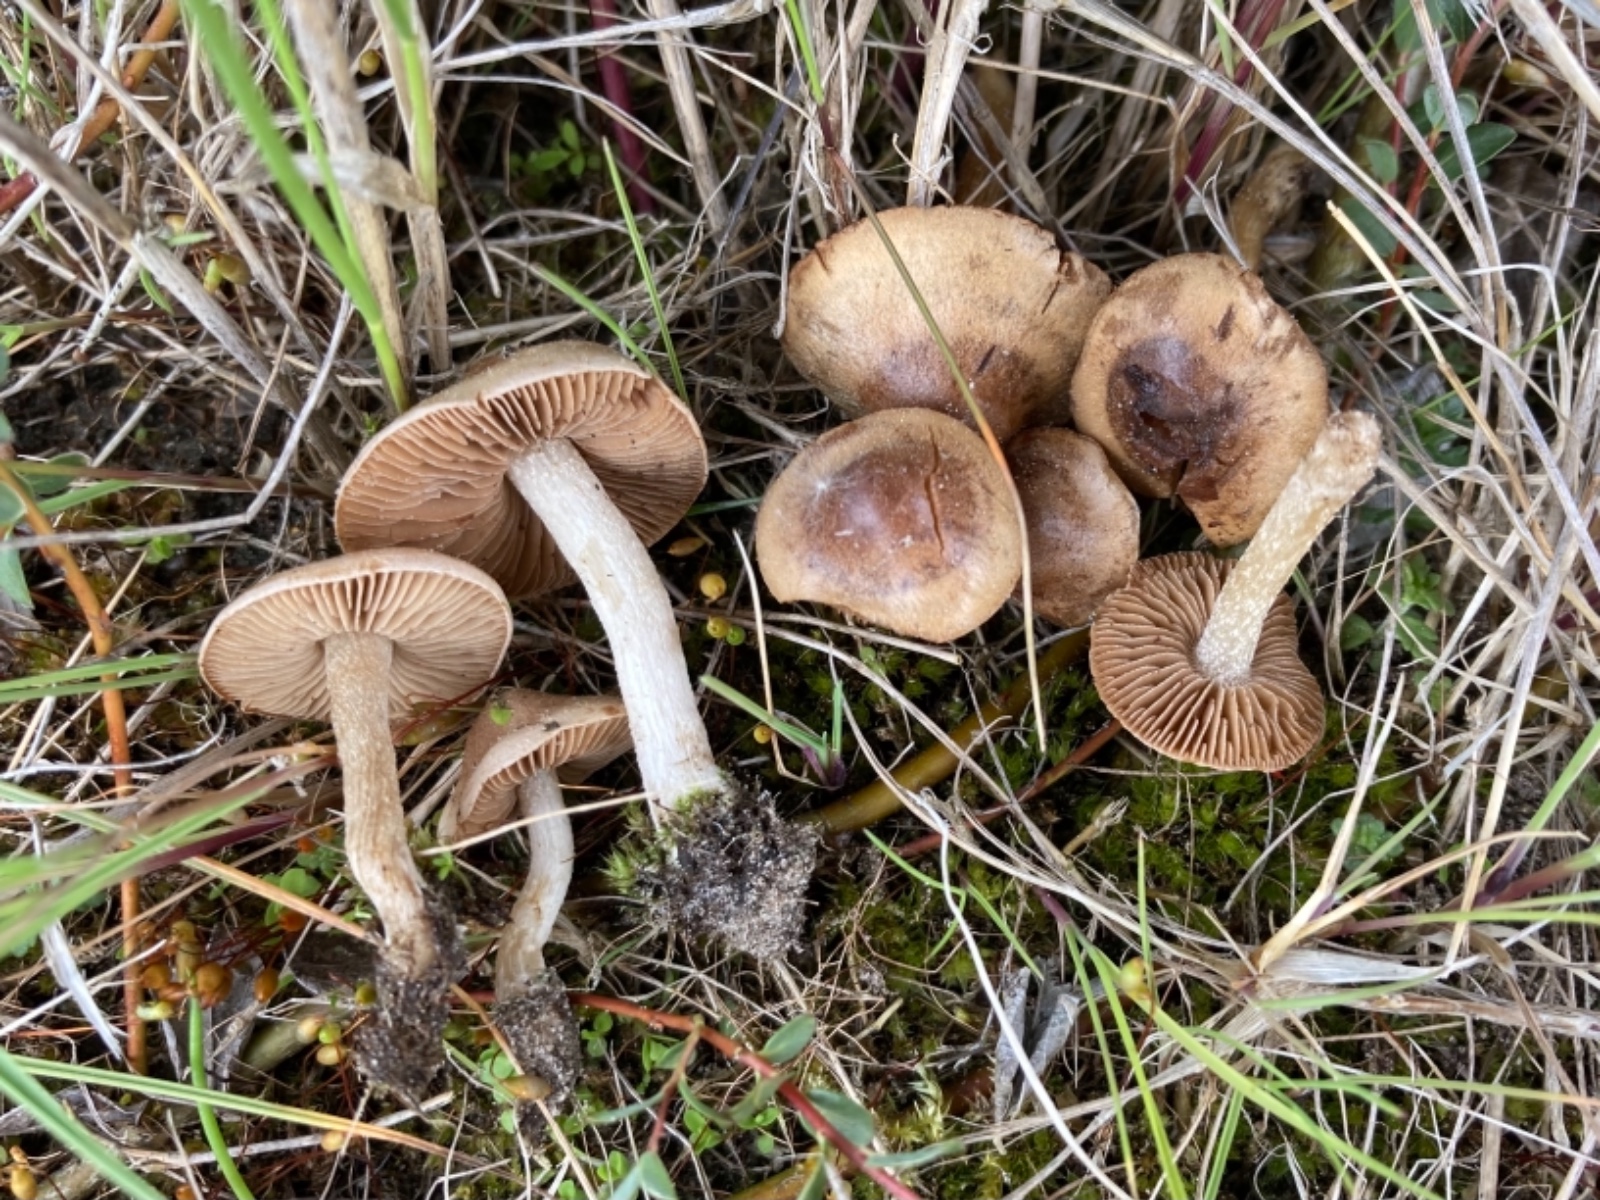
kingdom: Fungi
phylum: Basidiomycota
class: Agaricomycetes
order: Agaricales
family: Hymenogastraceae
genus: Hebeloma
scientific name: Hebeloma
